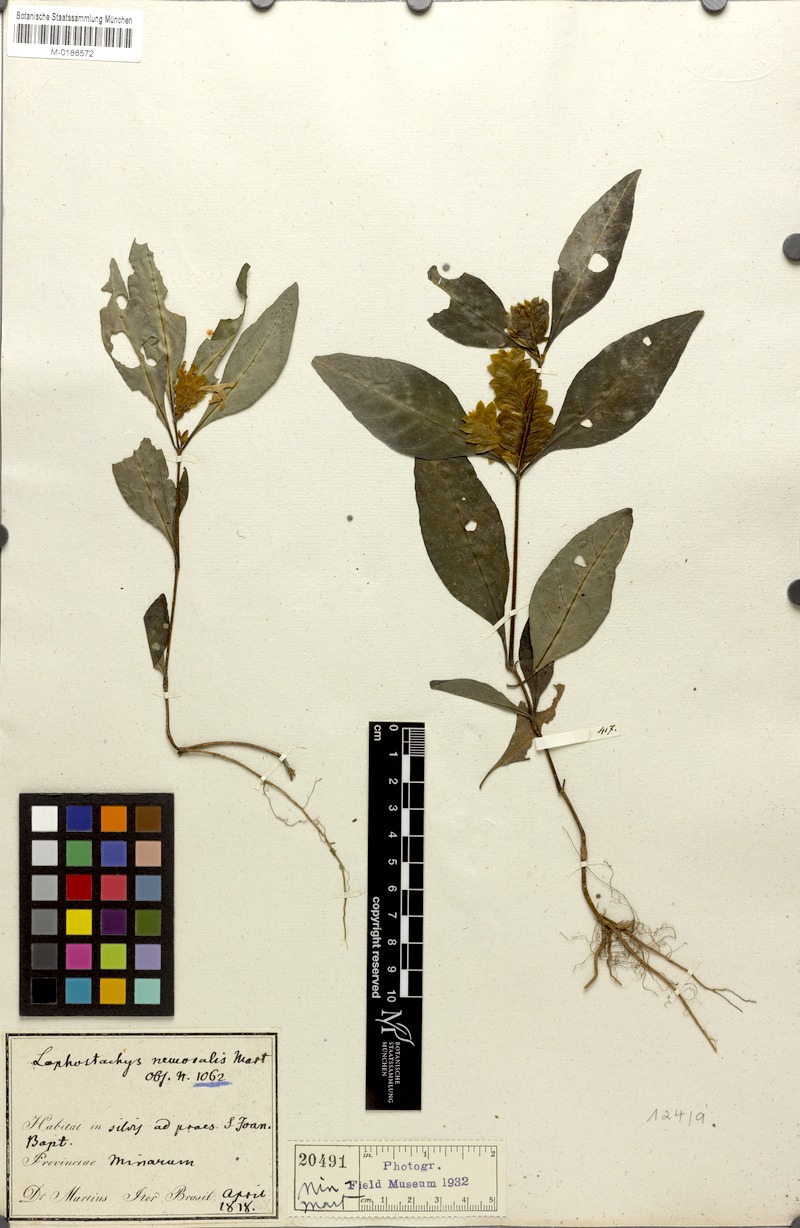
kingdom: Plantae
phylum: Tracheophyta
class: Magnoliopsida
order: Lamiales
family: Acanthaceae
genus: Lepidagathis
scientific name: Lepidagathis nemoralis
